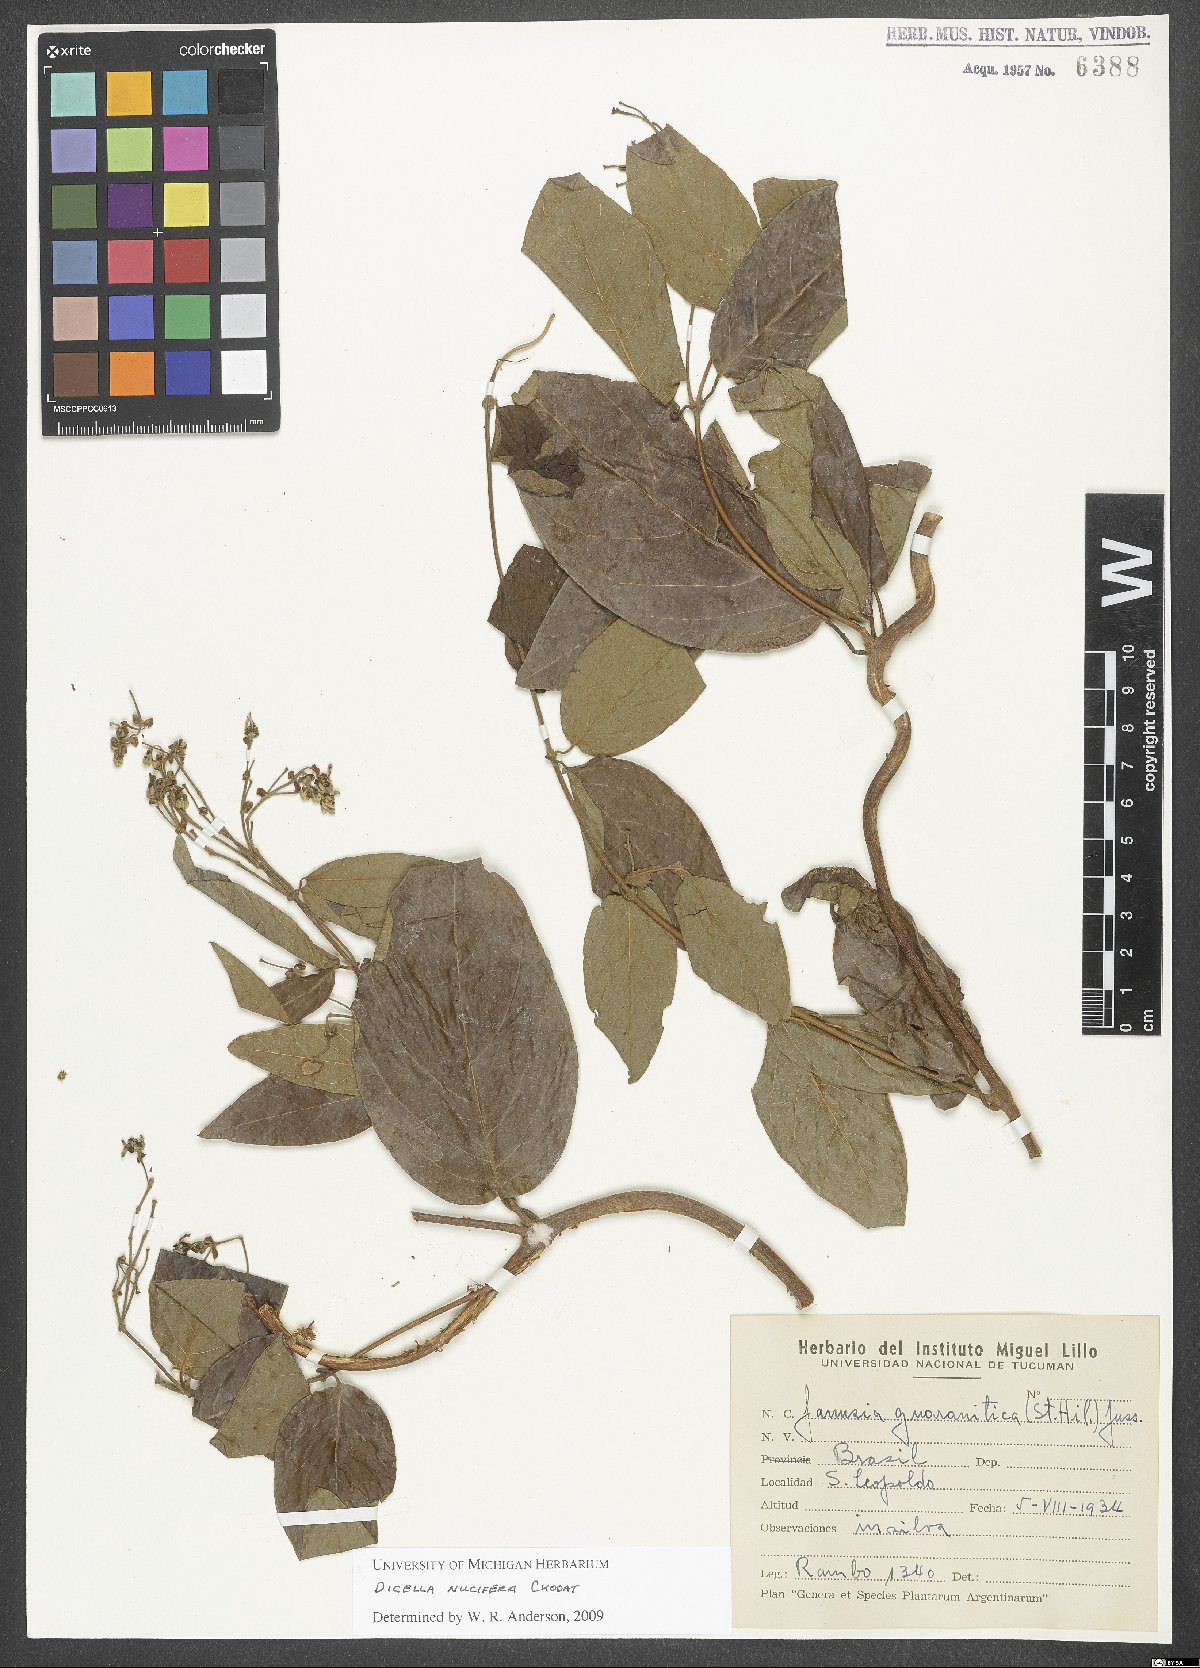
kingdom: Plantae
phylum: Tracheophyta
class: Magnoliopsida
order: Malpighiales
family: Malpighiaceae
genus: Dicella
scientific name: Dicella nucifera
